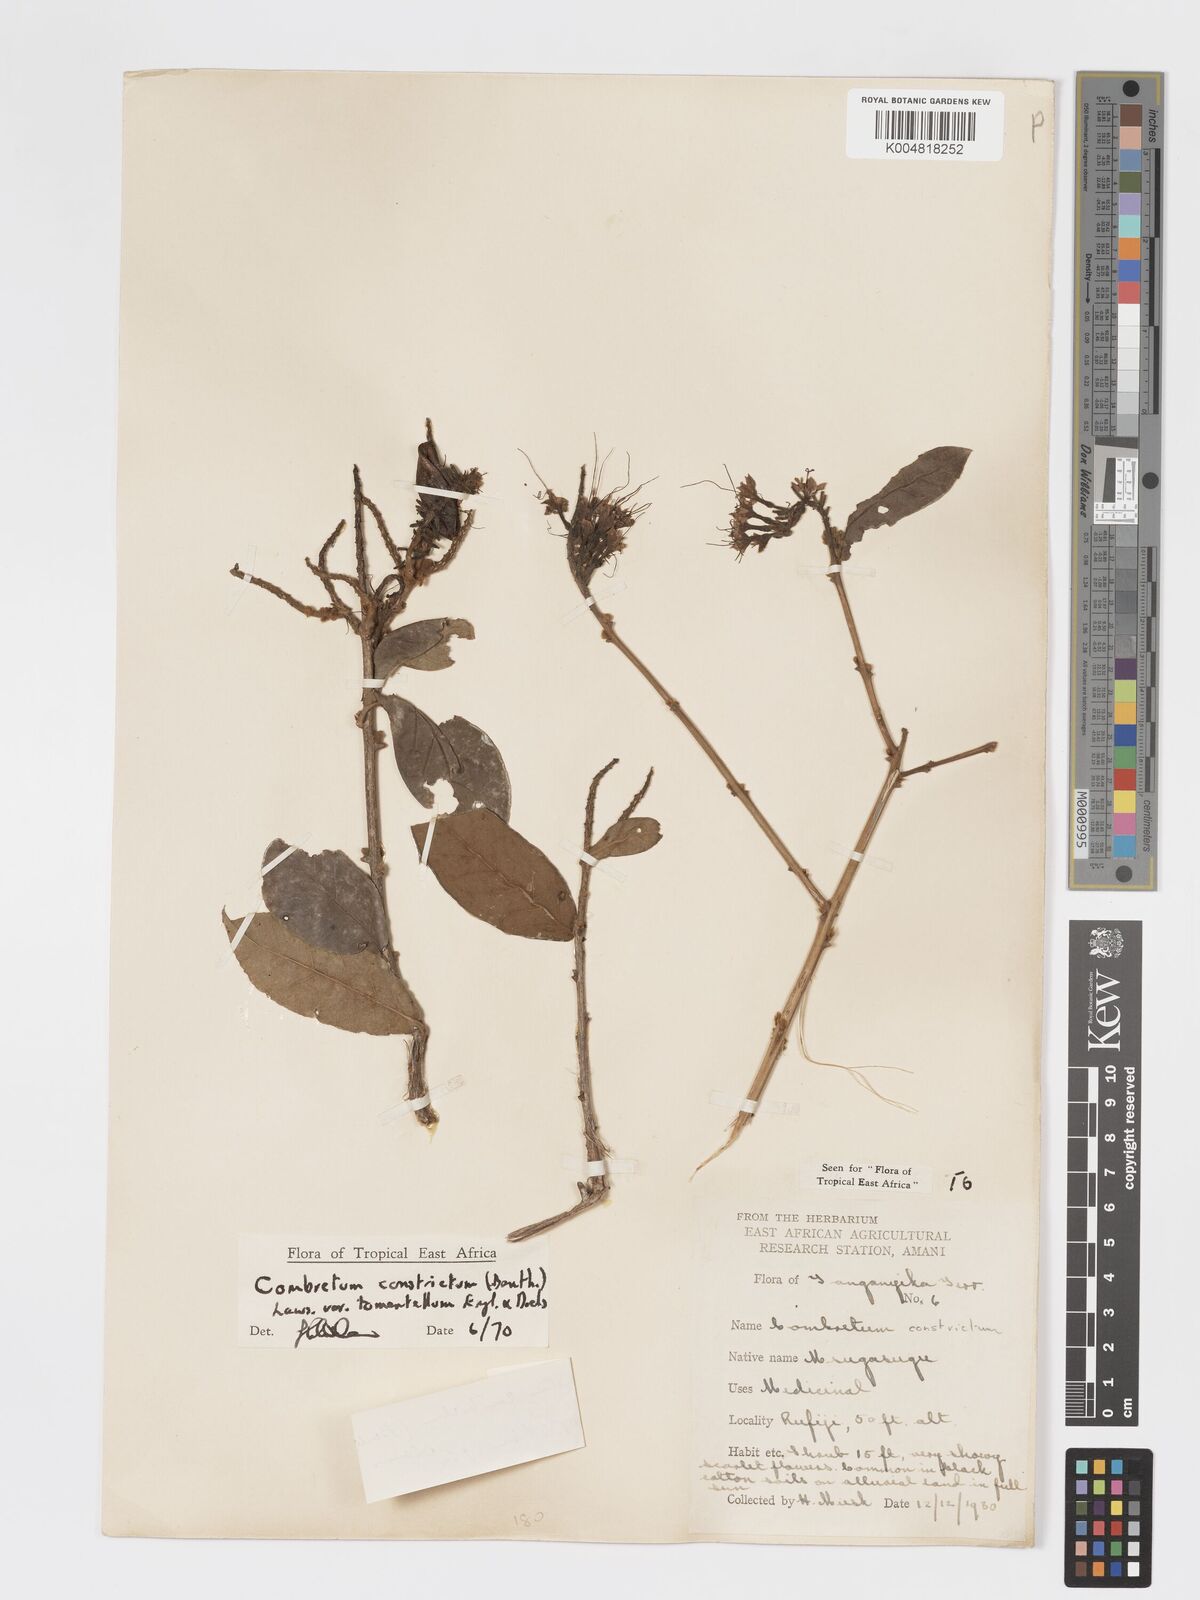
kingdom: Plantae
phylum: Tracheophyta
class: Magnoliopsida
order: Myrtales
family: Combretaceae
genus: Combretum
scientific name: Combretum constrictum
